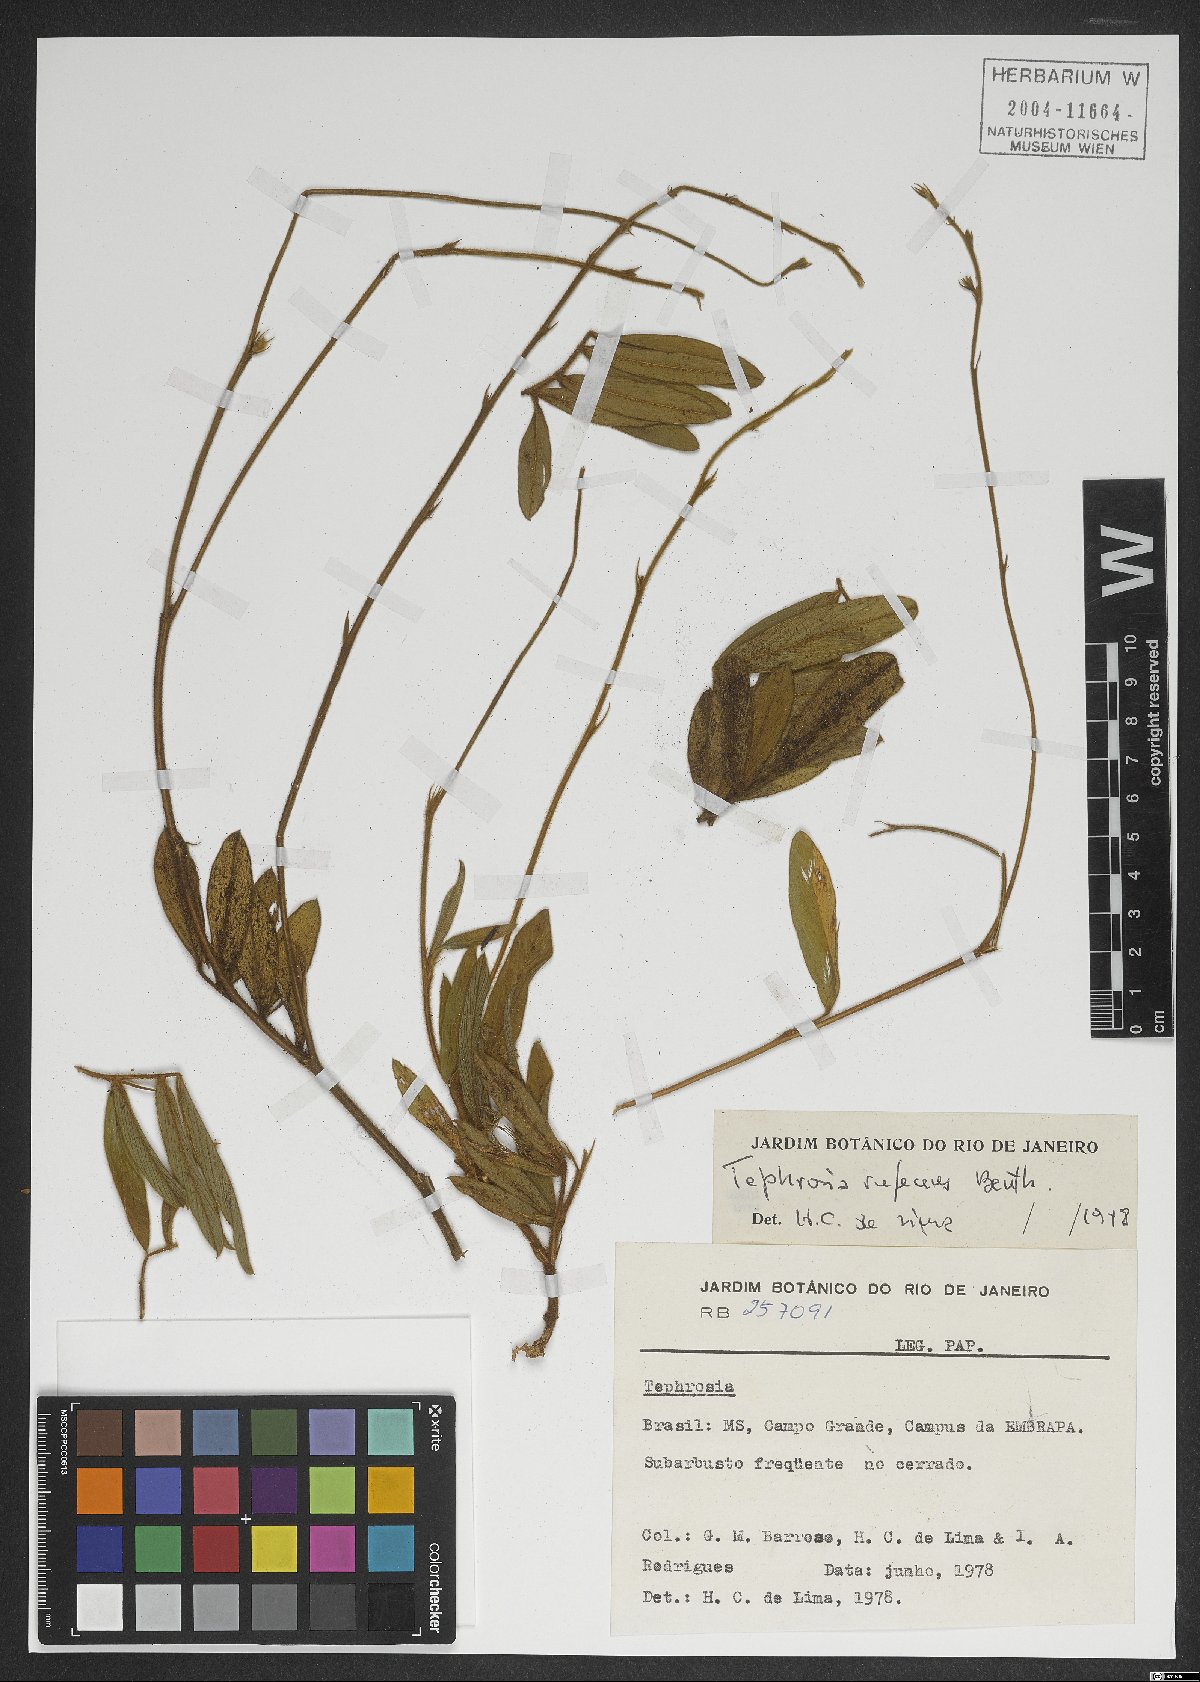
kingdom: Plantae
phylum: Tracheophyta
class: Magnoliopsida
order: Fabales
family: Fabaceae
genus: Tephrosia
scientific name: Tephrosia adunca
